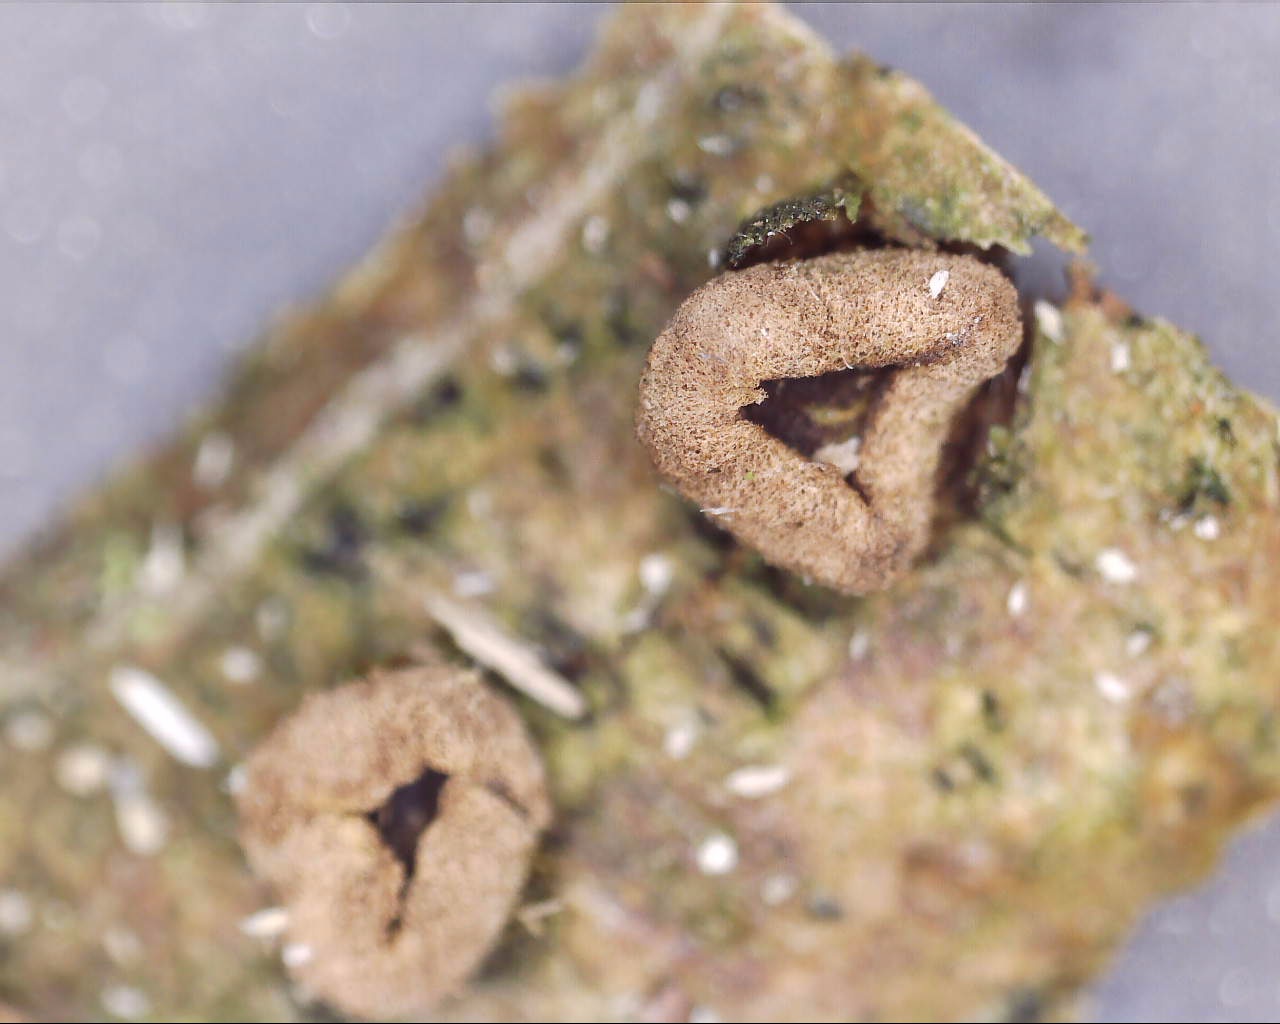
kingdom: Fungi
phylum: Ascomycota
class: Leotiomycetes
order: Helotiales
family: Cenangiaceae
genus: Velutarina
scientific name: Velutarina rufo-olivacea
